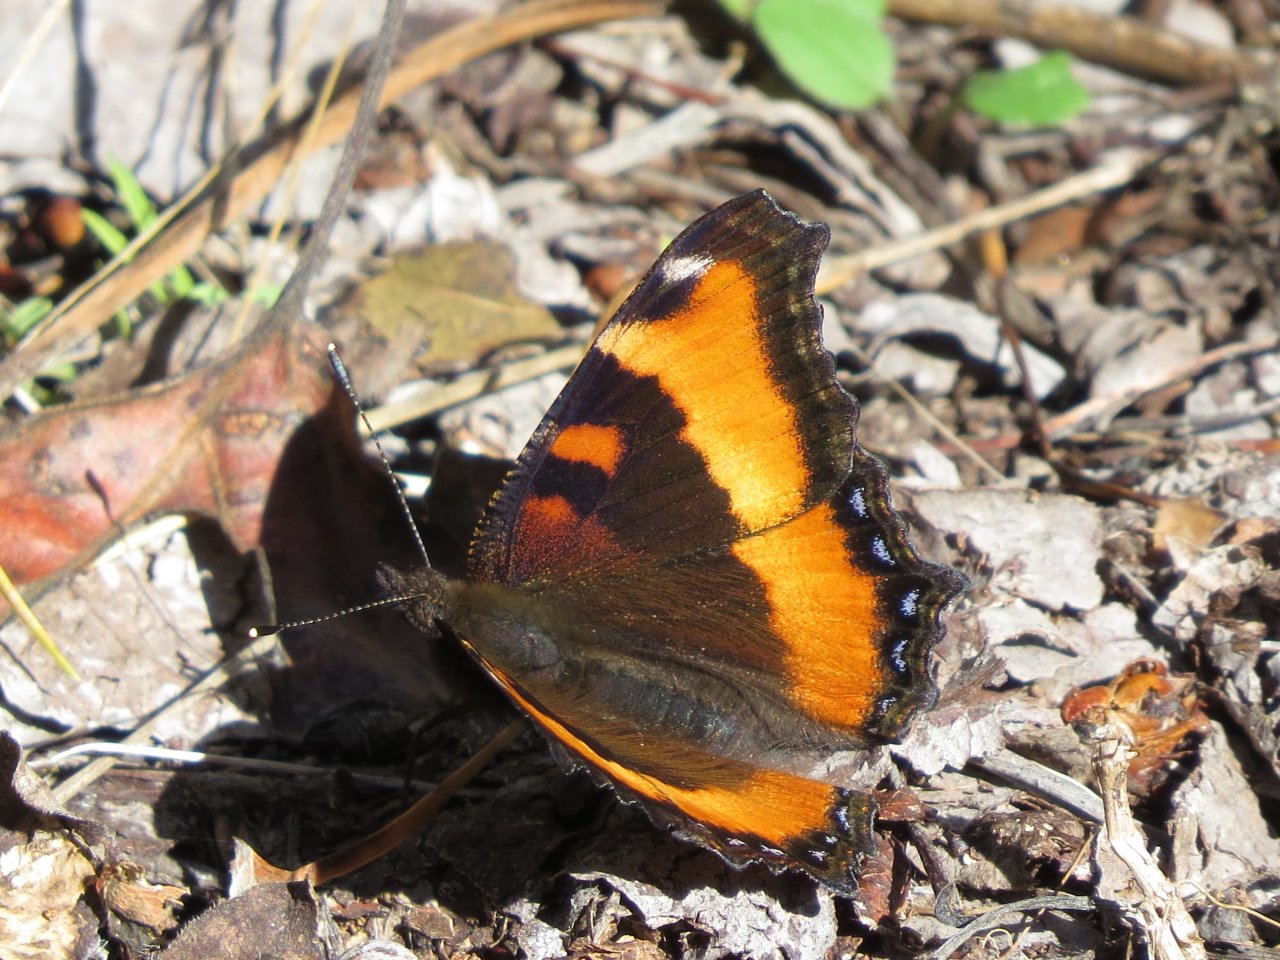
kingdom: Animalia
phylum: Arthropoda
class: Insecta
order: Lepidoptera
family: Nymphalidae
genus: Aglais
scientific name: Aglais milberti
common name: Milbert's Tortoiseshell
